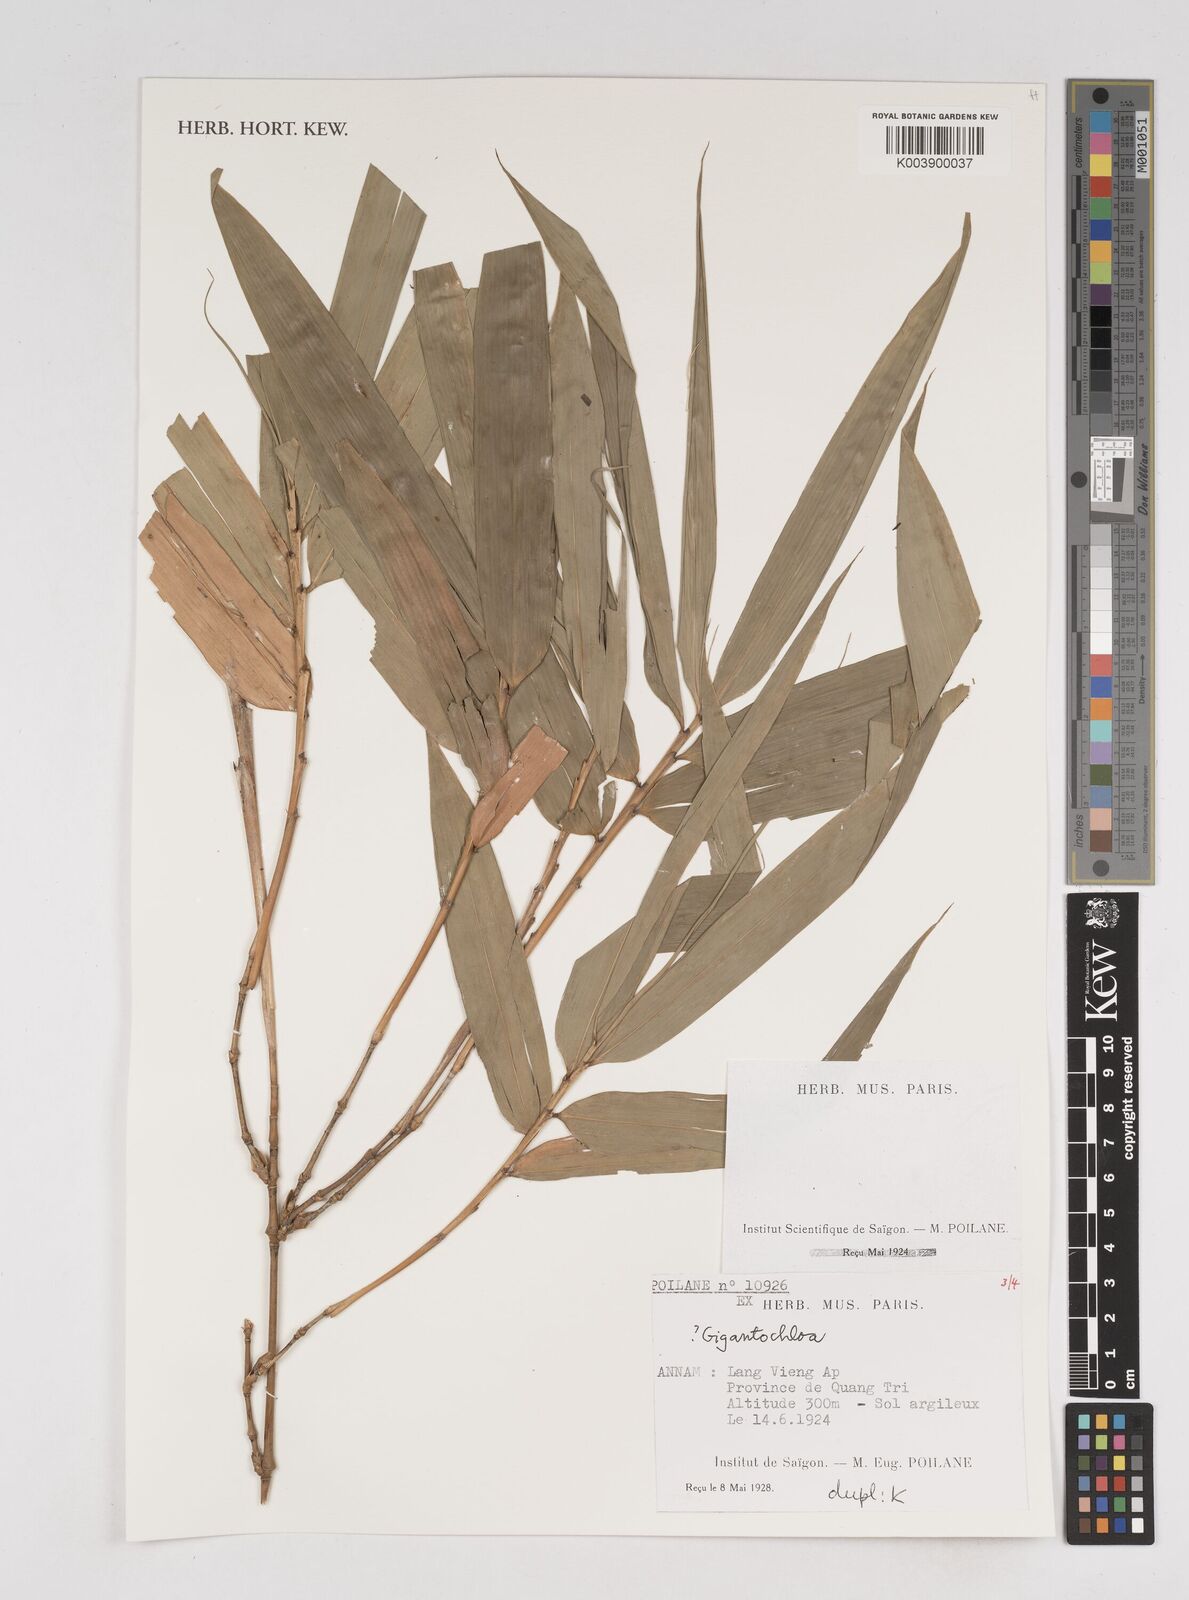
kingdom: Plantae
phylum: Tracheophyta
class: Liliopsida
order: Poales
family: Poaceae
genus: Gigantochloa
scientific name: Gigantochloa
